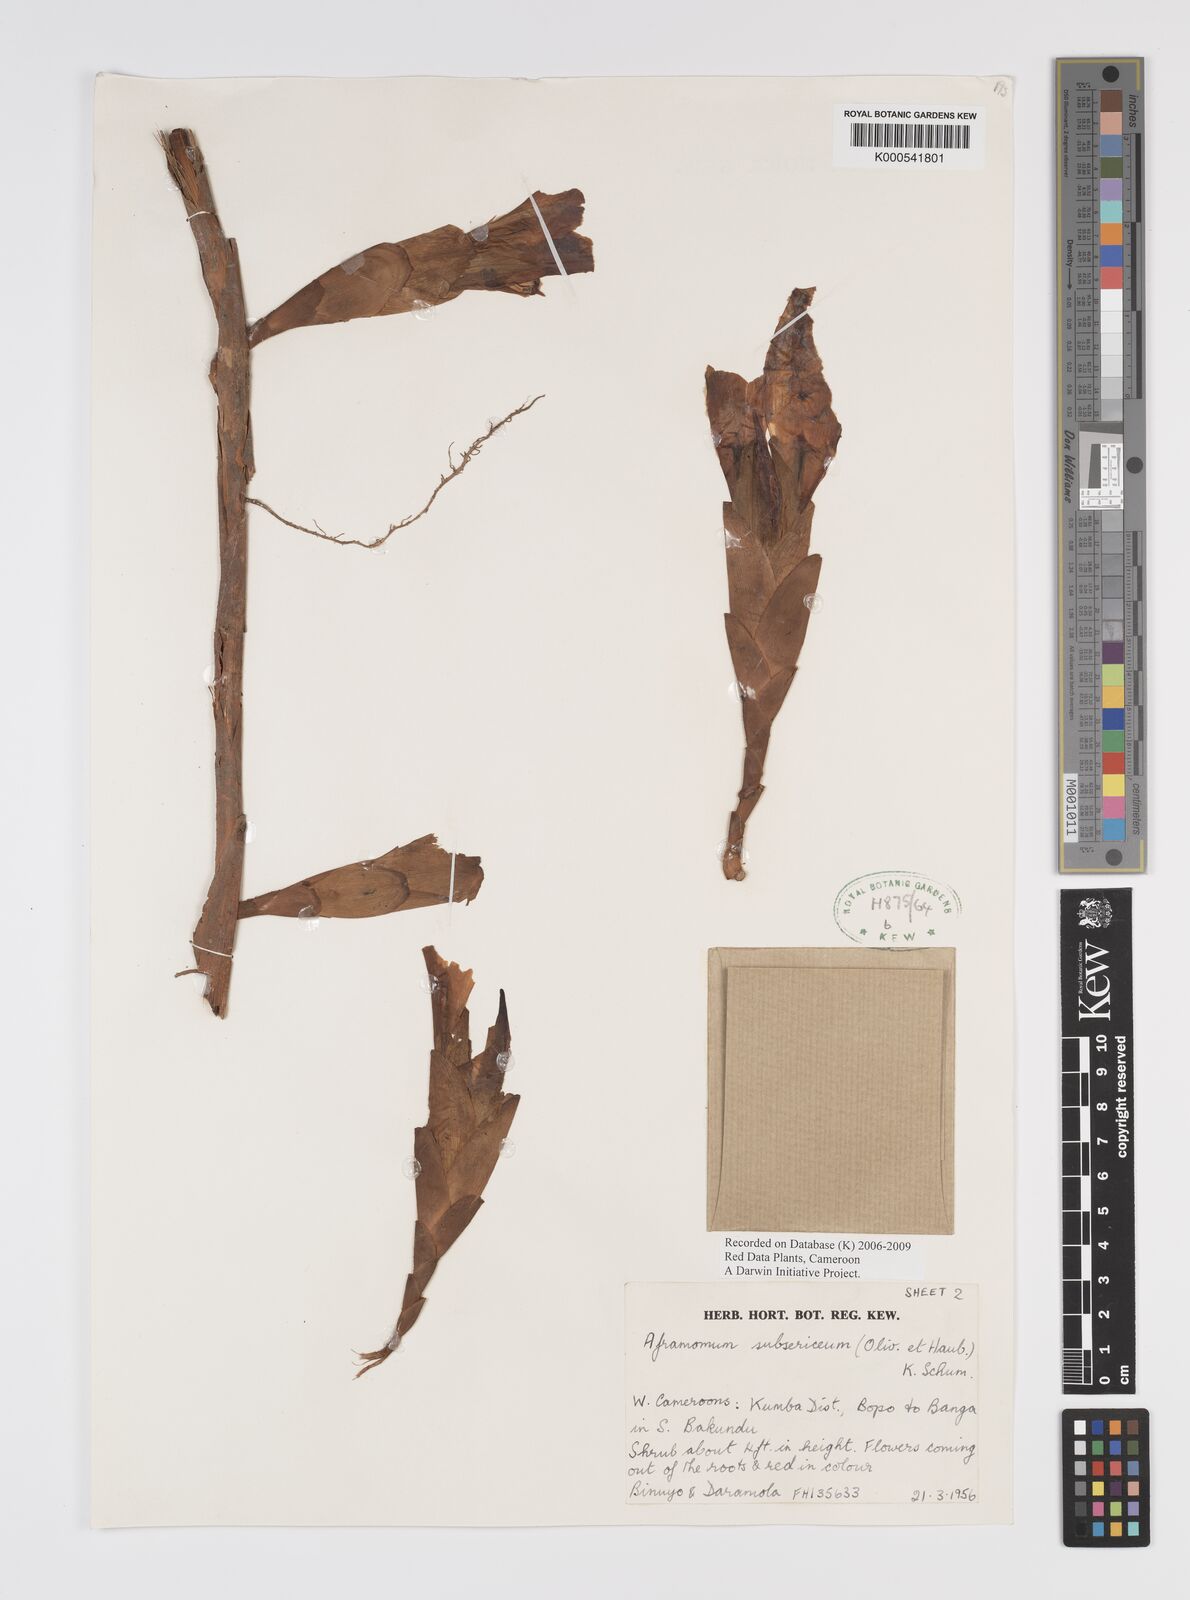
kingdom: Plantae
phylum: Tracheophyta
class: Liliopsida
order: Zingiberales
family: Zingiberaceae
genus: Aframomum
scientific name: Aframomum subsericeum
